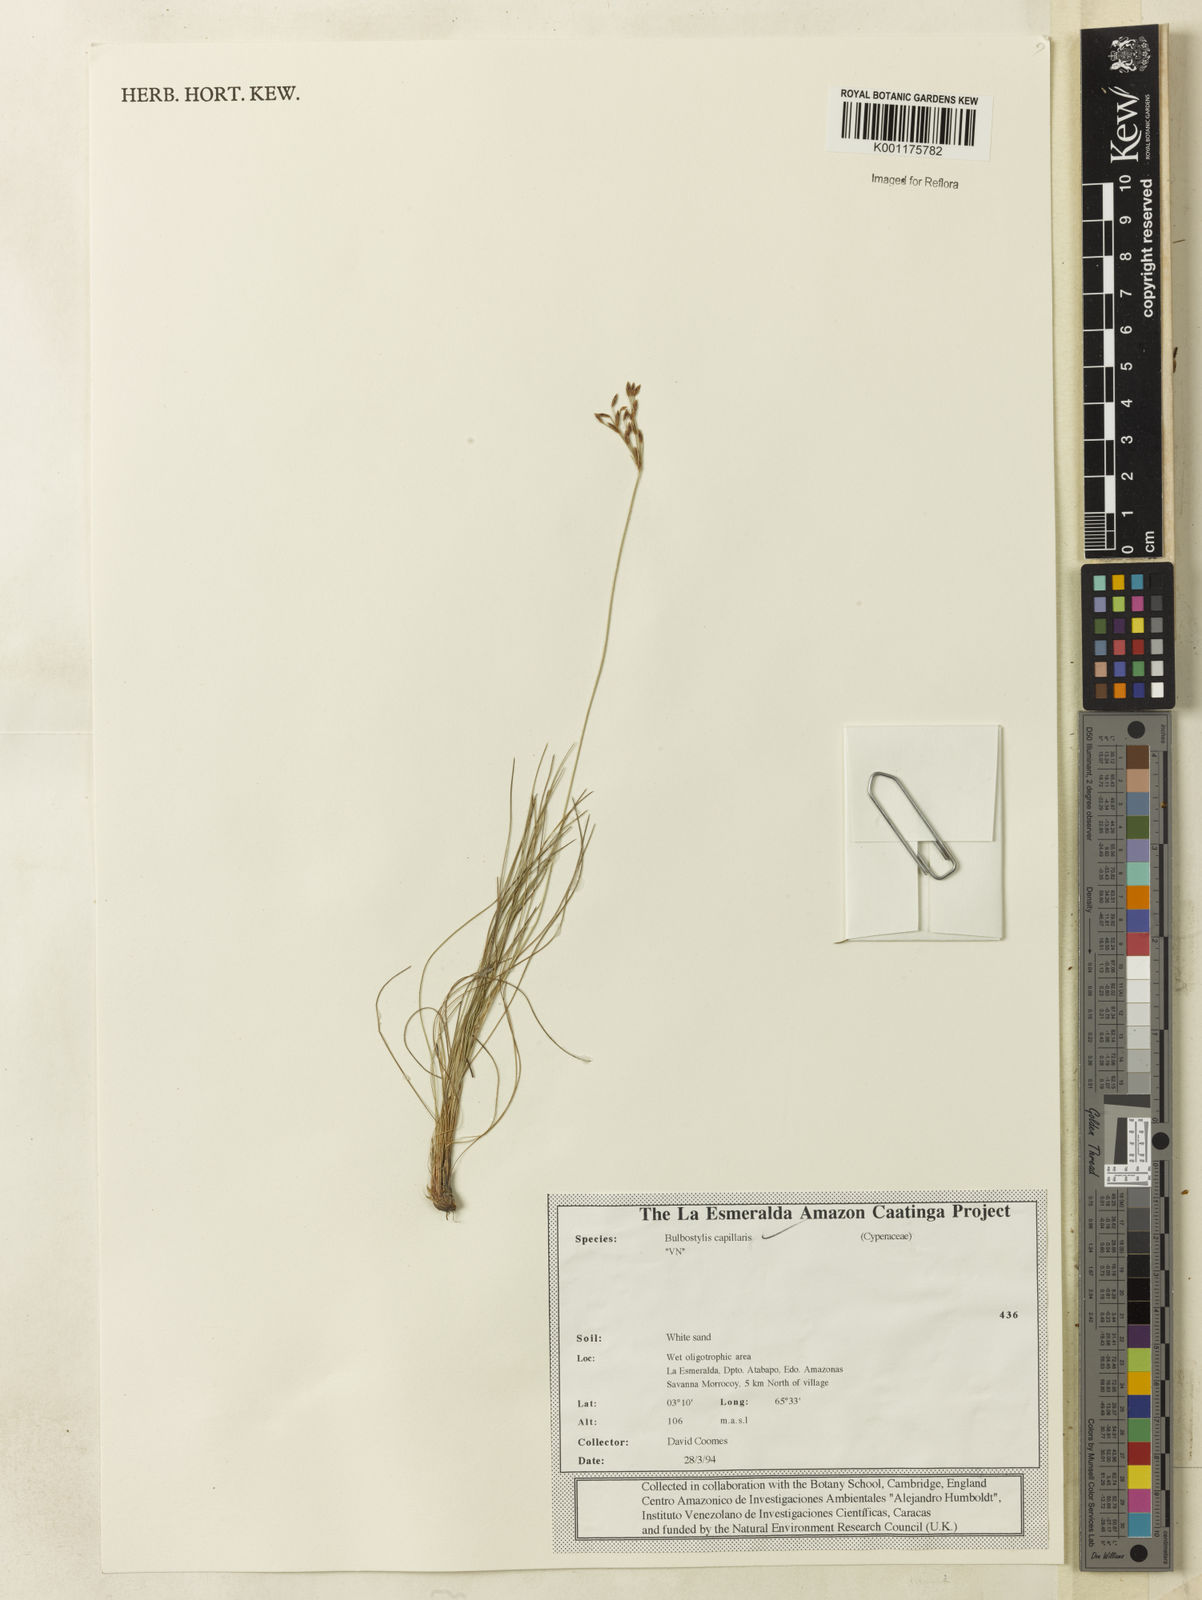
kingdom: Plantae
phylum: Tracheophyta
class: Liliopsida
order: Poales
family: Cyperaceae
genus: Bulbostylis
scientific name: Bulbostylis capillaris
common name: Densetuft hairsedge
